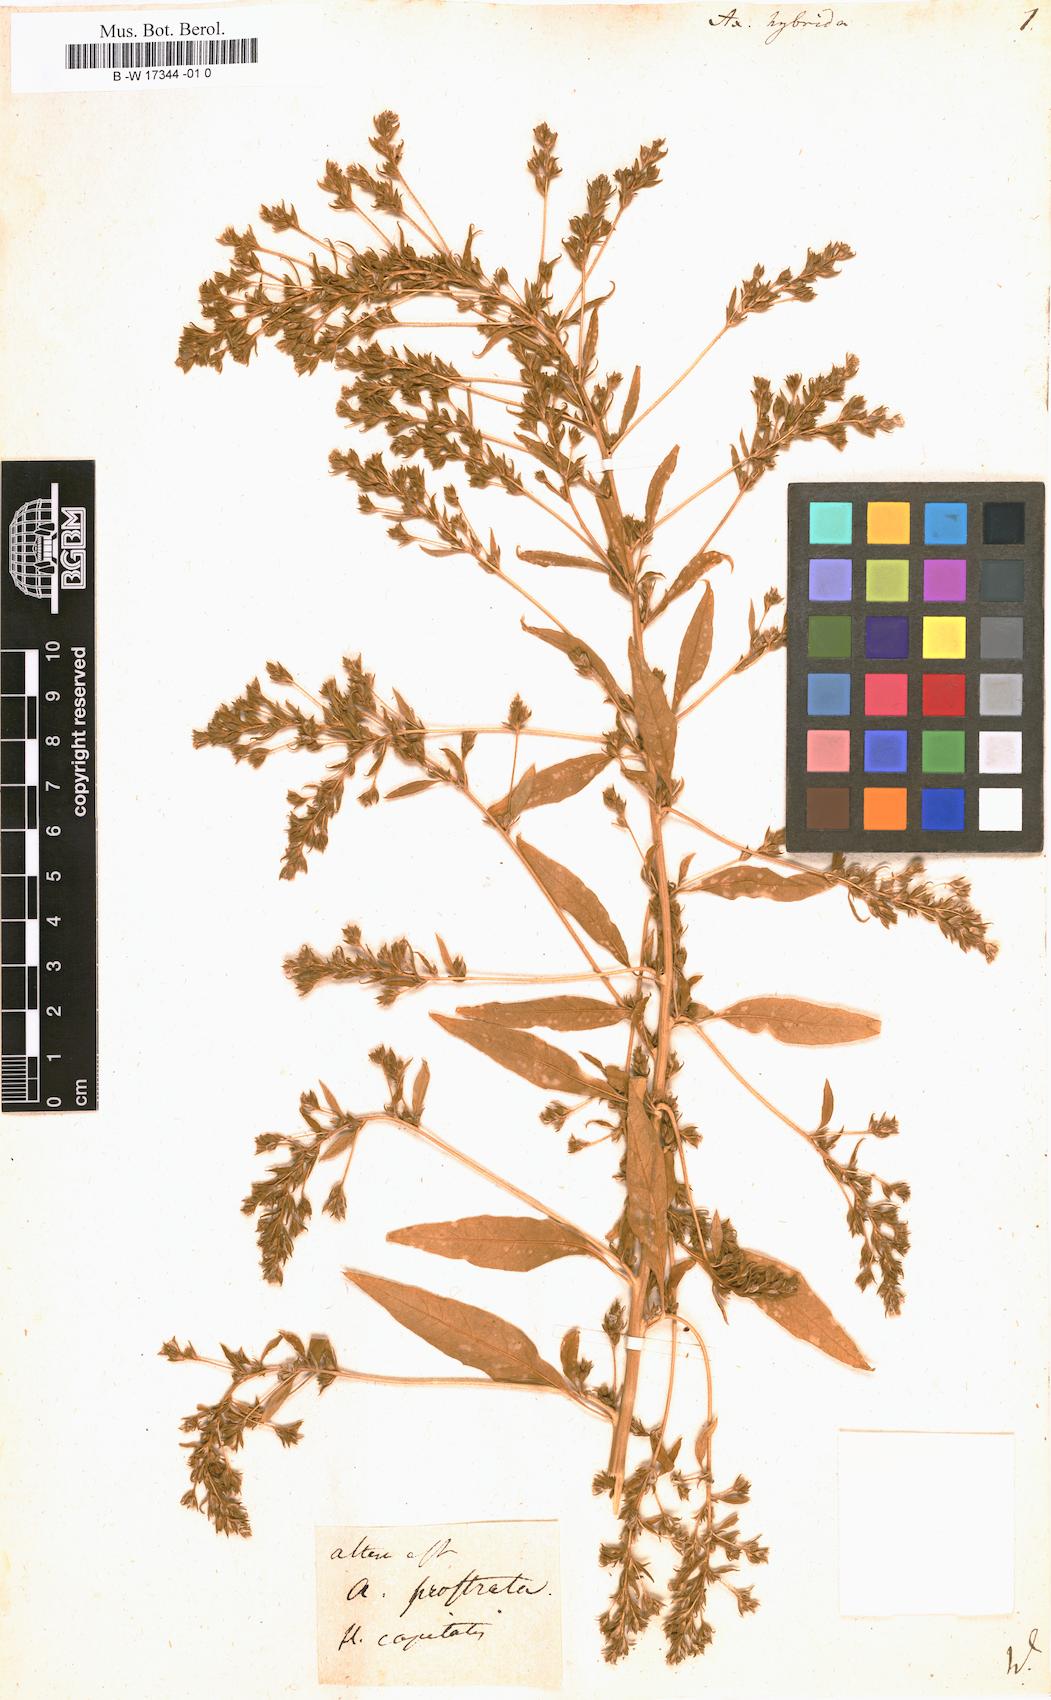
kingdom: Plantae
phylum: Tracheophyta
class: Magnoliopsida
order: Caryophyllales
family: Amaranthaceae
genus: Axyris
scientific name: Axyris hybrida
